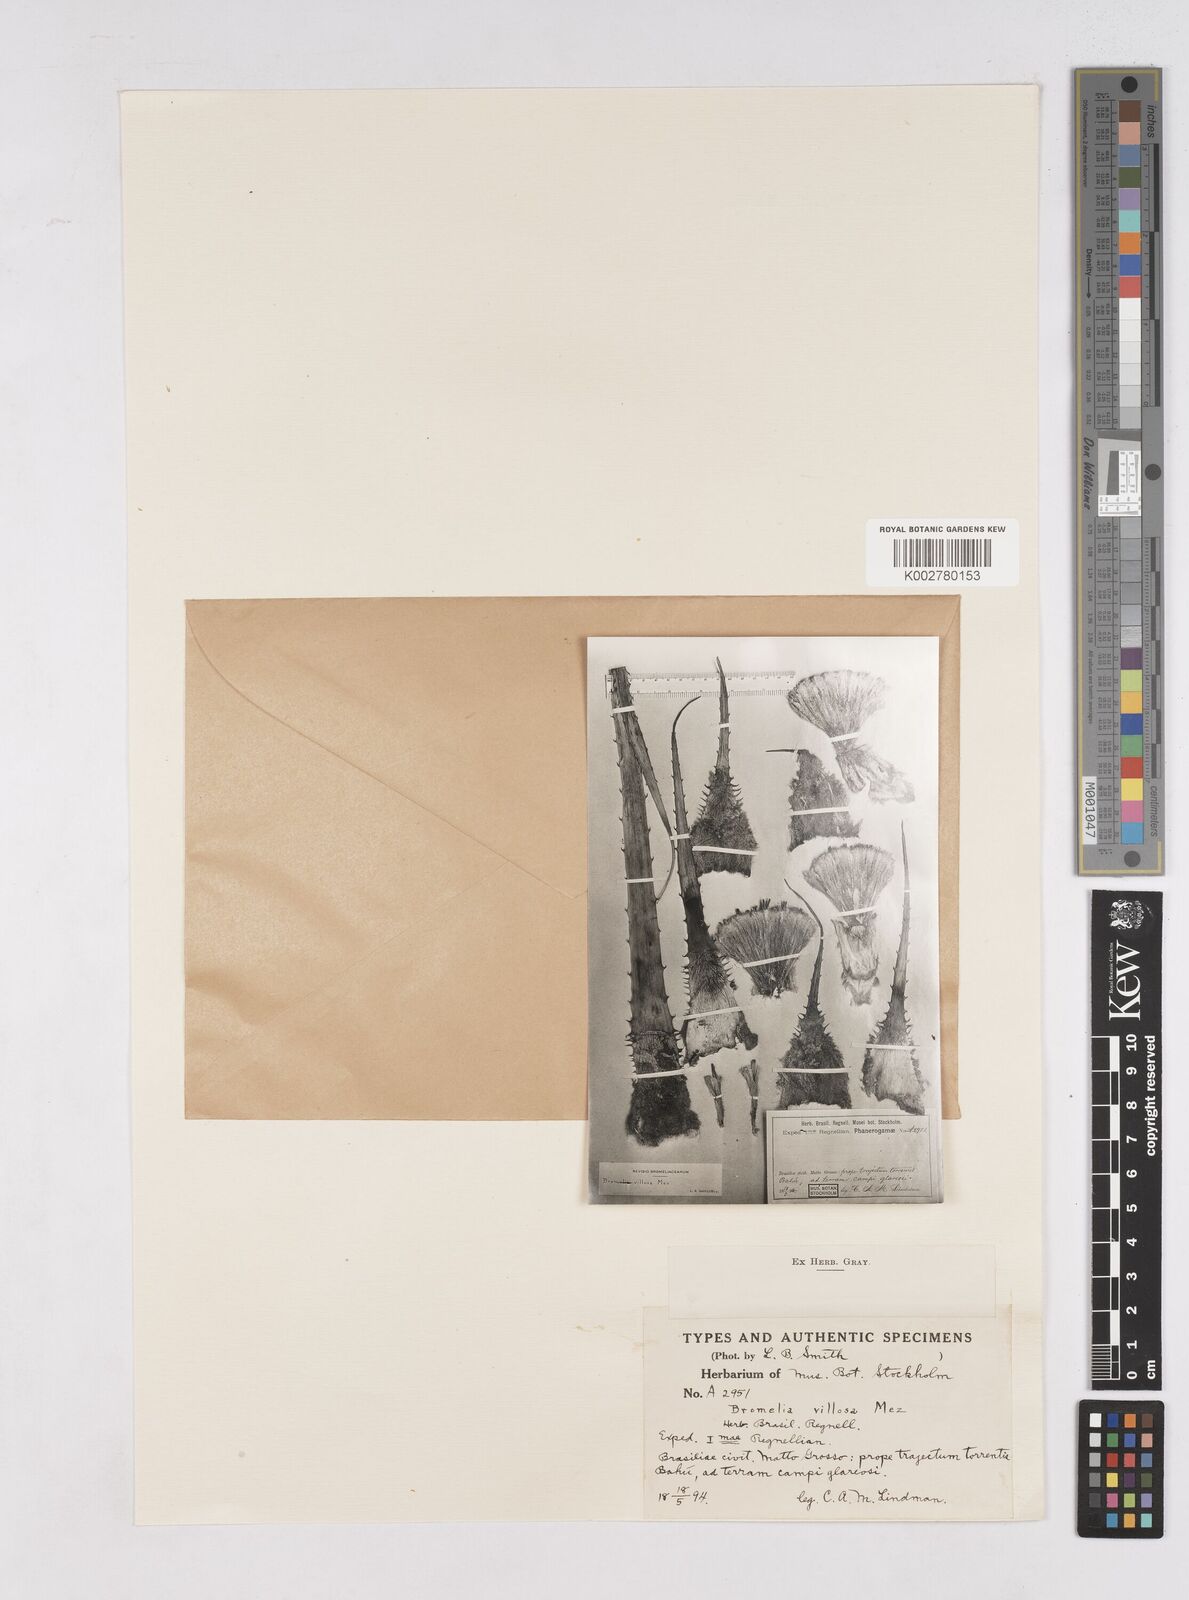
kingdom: Plantae
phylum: Tracheophyta
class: Liliopsida
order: Poales
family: Bromeliaceae
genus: Bromelia
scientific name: Bromelia villosa
